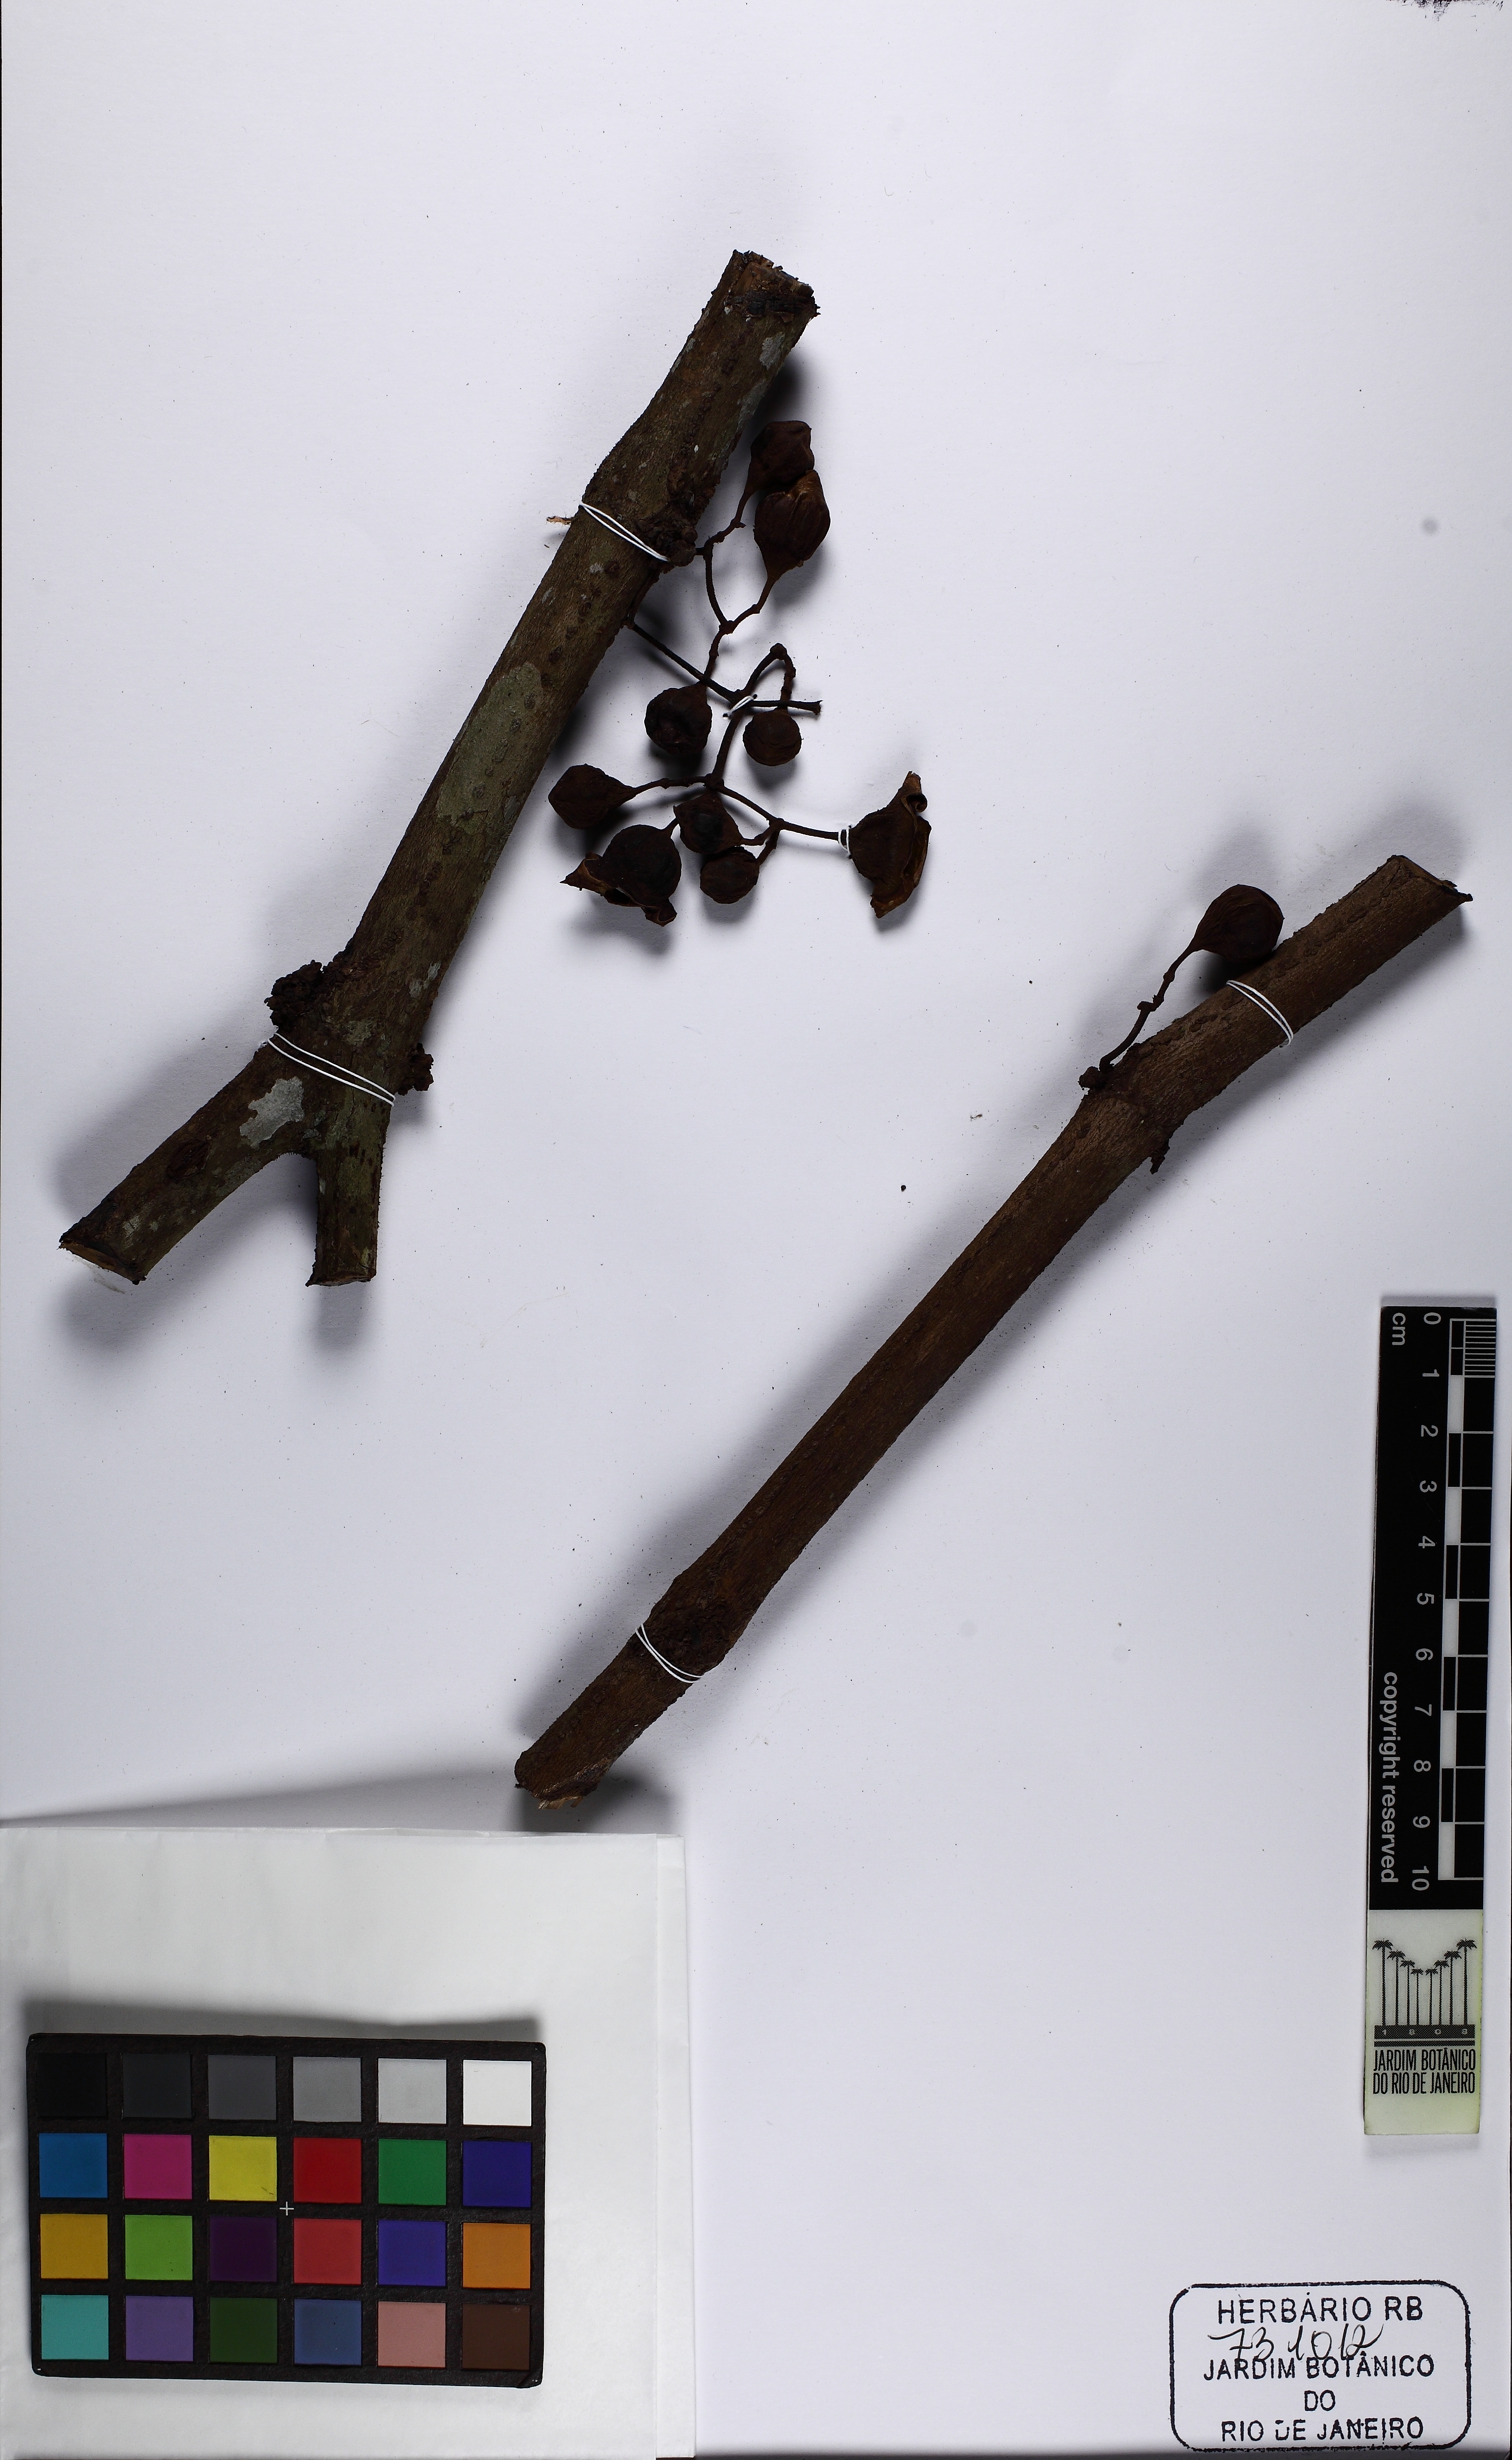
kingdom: Plantae
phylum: Tracheophyta
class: Magnoliopsida
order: Myrtales
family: Melastomataceae
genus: Bellucia
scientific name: Bellucia
